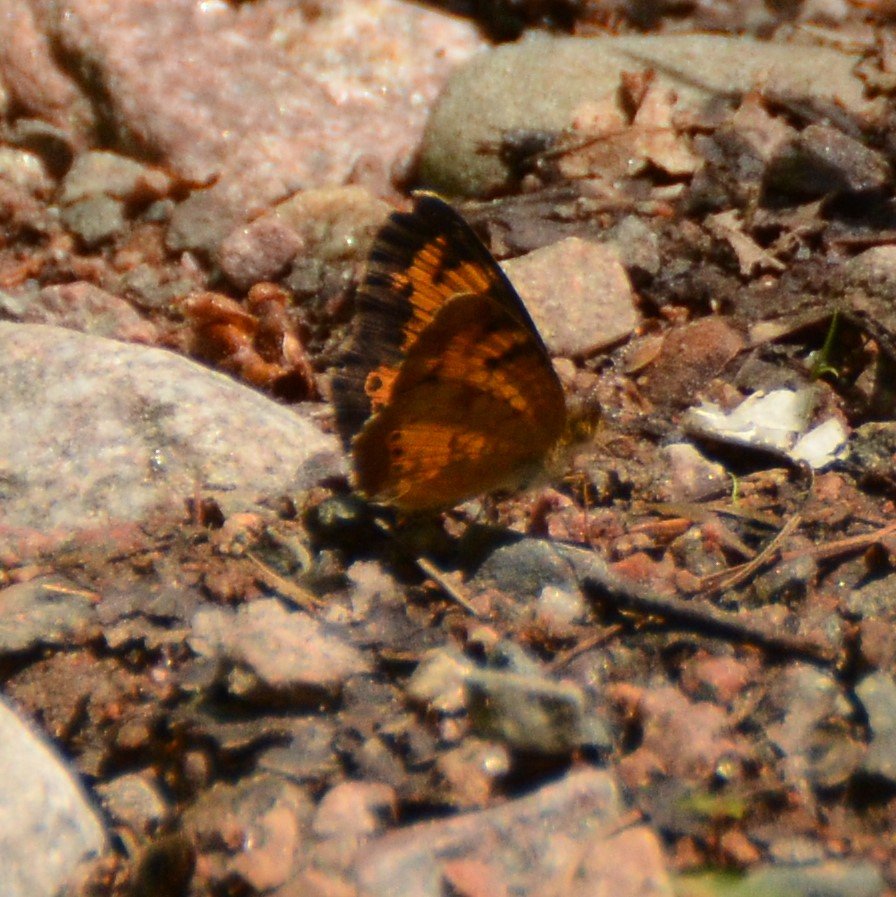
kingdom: Animalia
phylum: Arthropoda
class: Insecta
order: Lepidoptera
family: Nymphalidae
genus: Phyciodes
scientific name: Phyciodes tharos
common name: Northern Crescent
